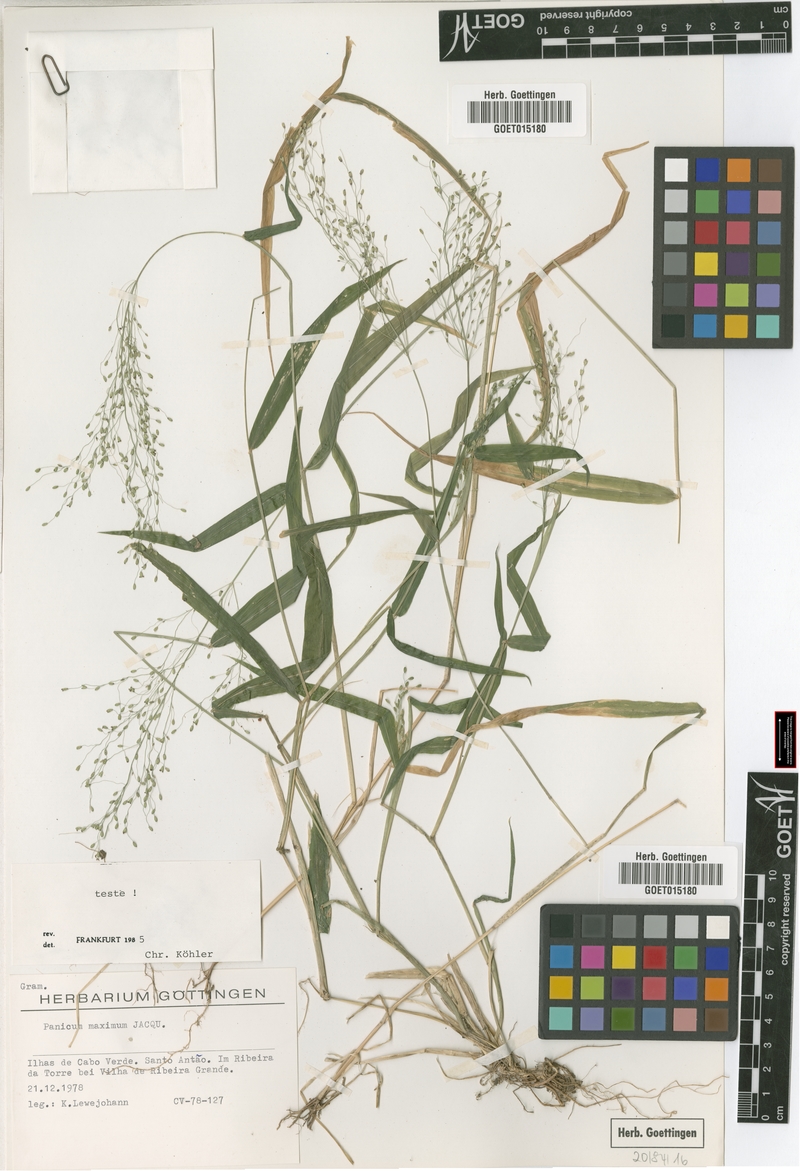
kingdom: Plantae
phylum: Tracheophyta
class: Liliopsida
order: Poales
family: Poaceae
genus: Megathyrsus
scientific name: Megathyrsus maximus
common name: Guineagrass
